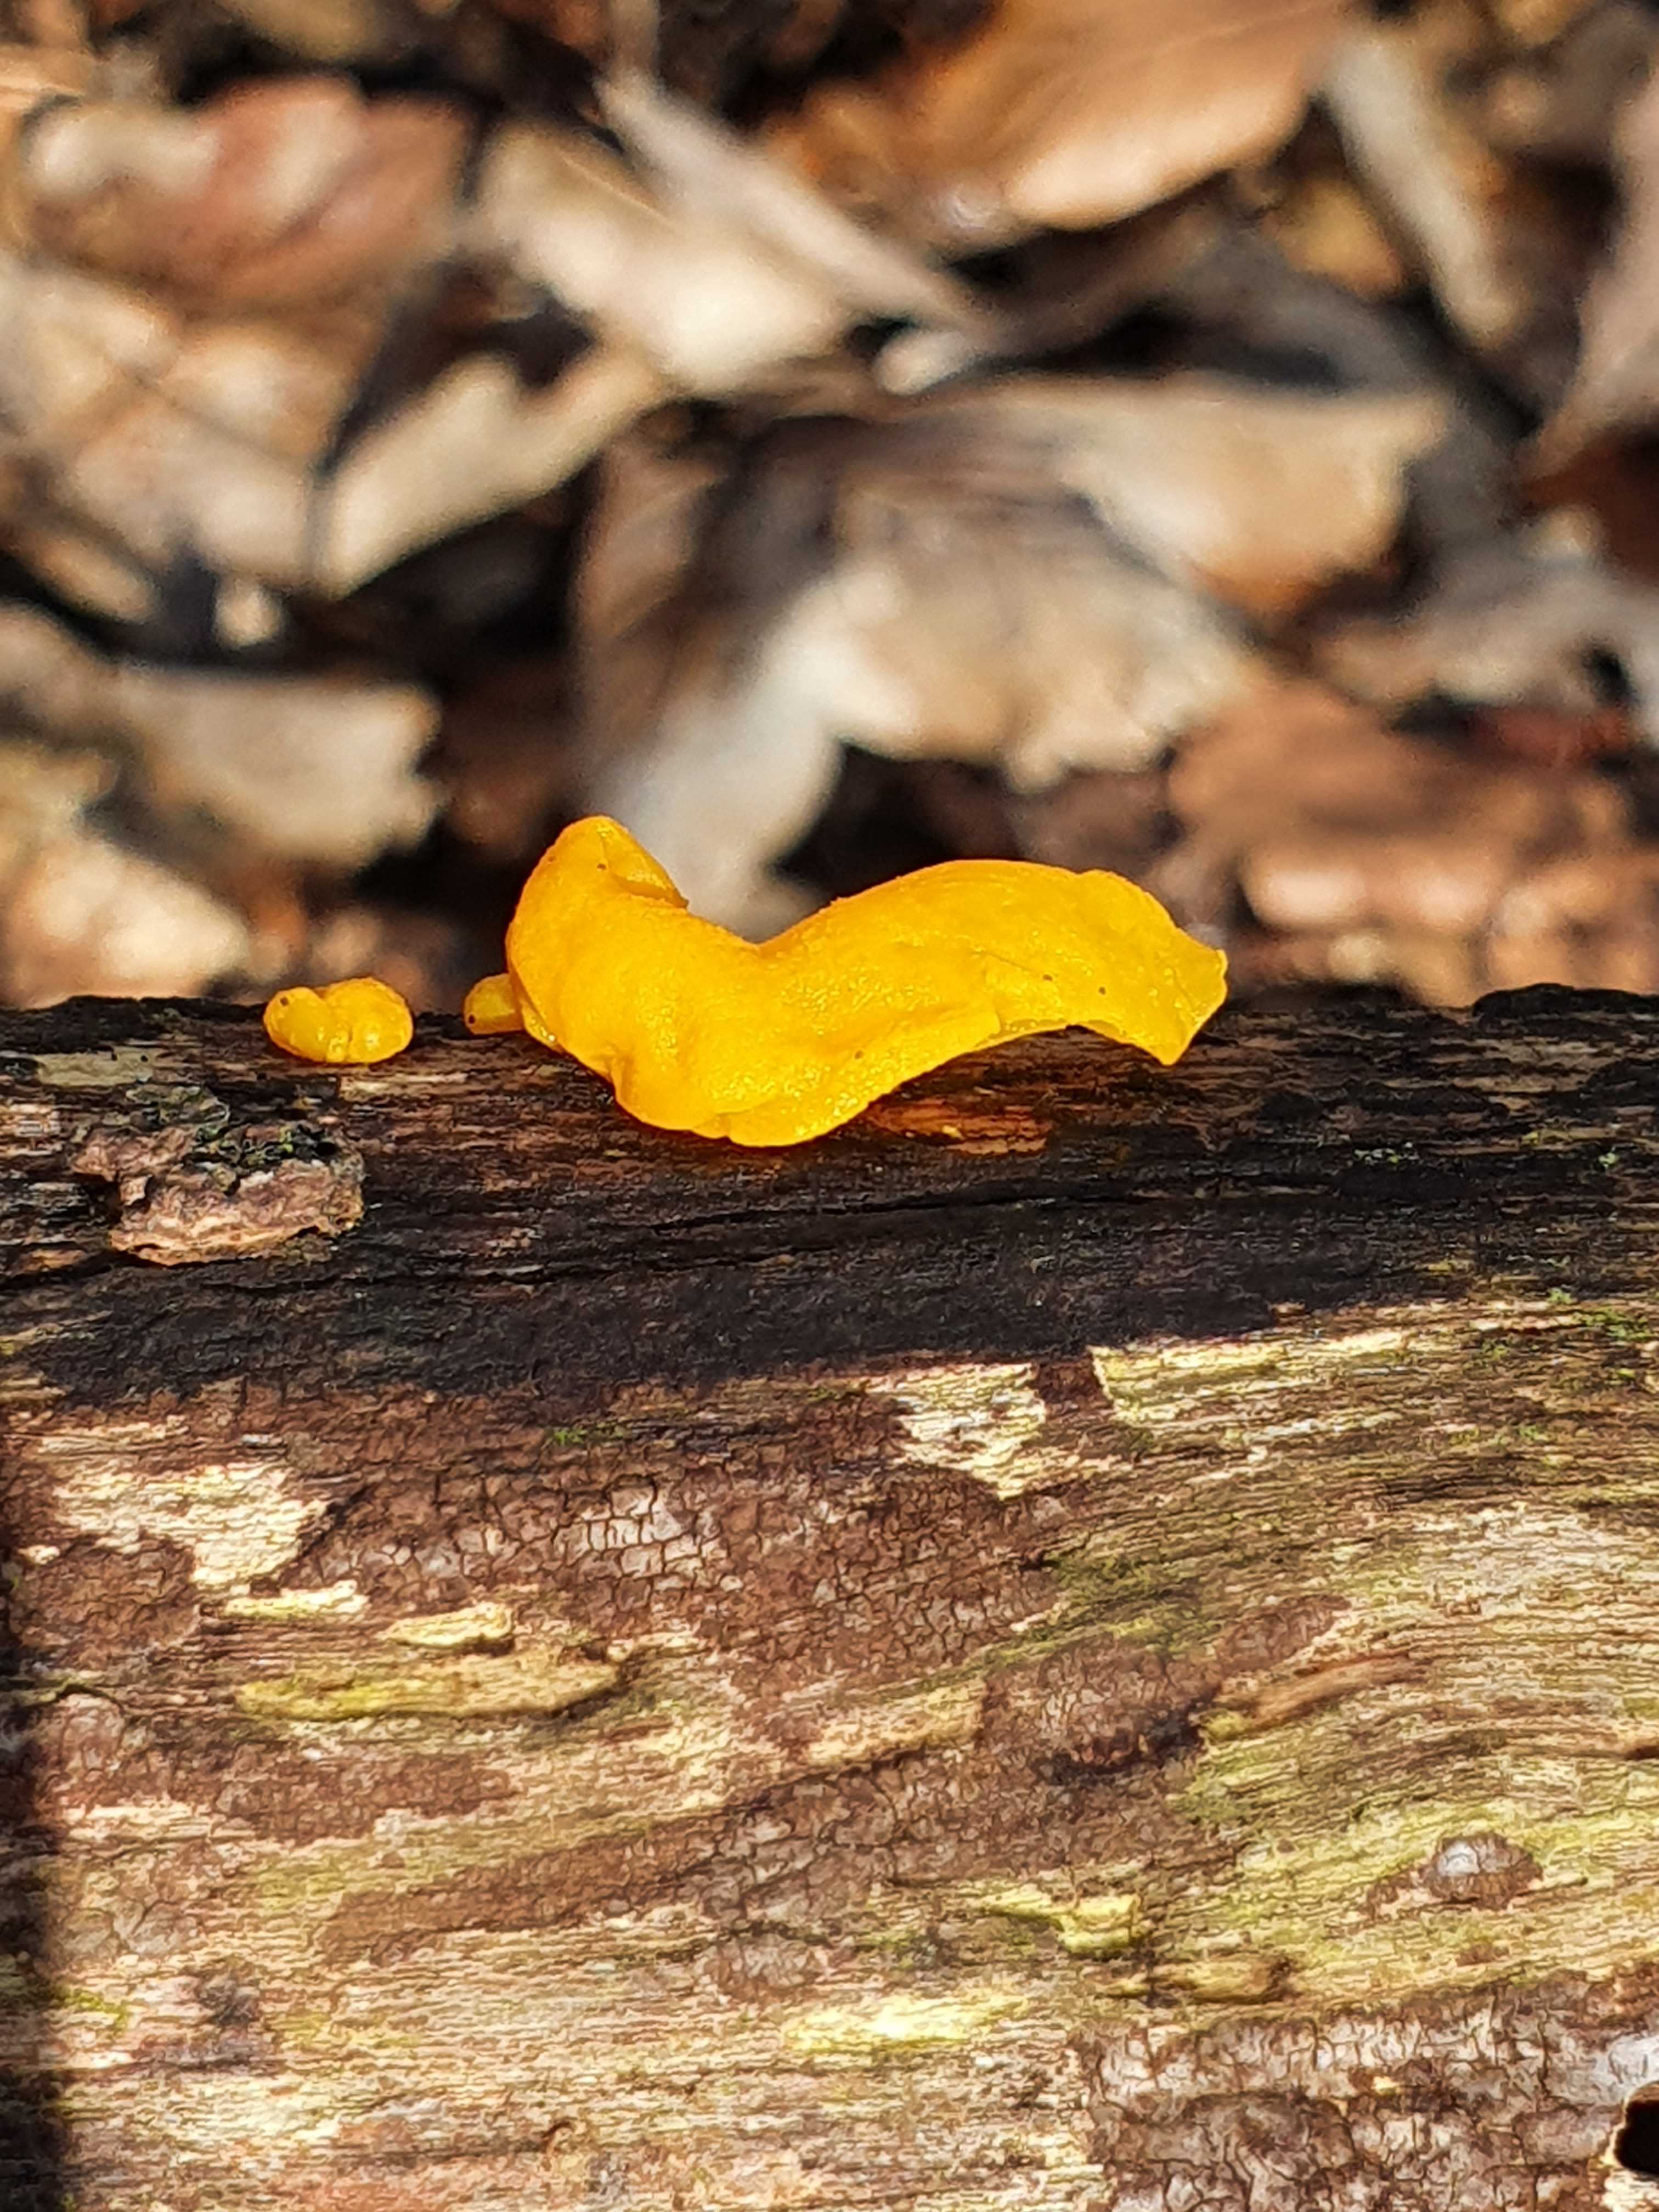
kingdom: Fungi
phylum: Basidiomycota
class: Tremellomycetes
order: Tremellales
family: Tremellaceae
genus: Tremella
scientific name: Tremella mesenterica
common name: gul bævresvamp
